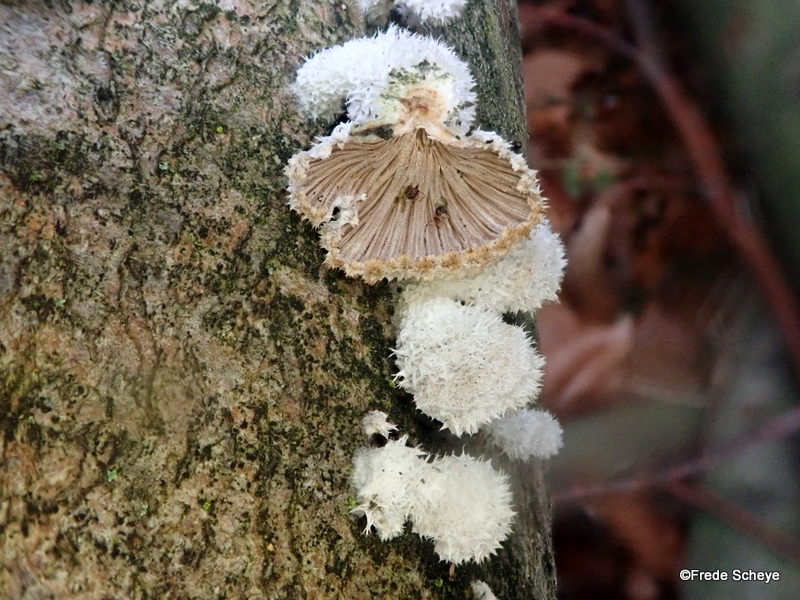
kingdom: Fungi
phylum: Basidiomycota
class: Agaricomycetes
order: Agaricales
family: Schizophyllaceae
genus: Schizophyllum
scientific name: Schizophyllum commune
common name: kløvblad
